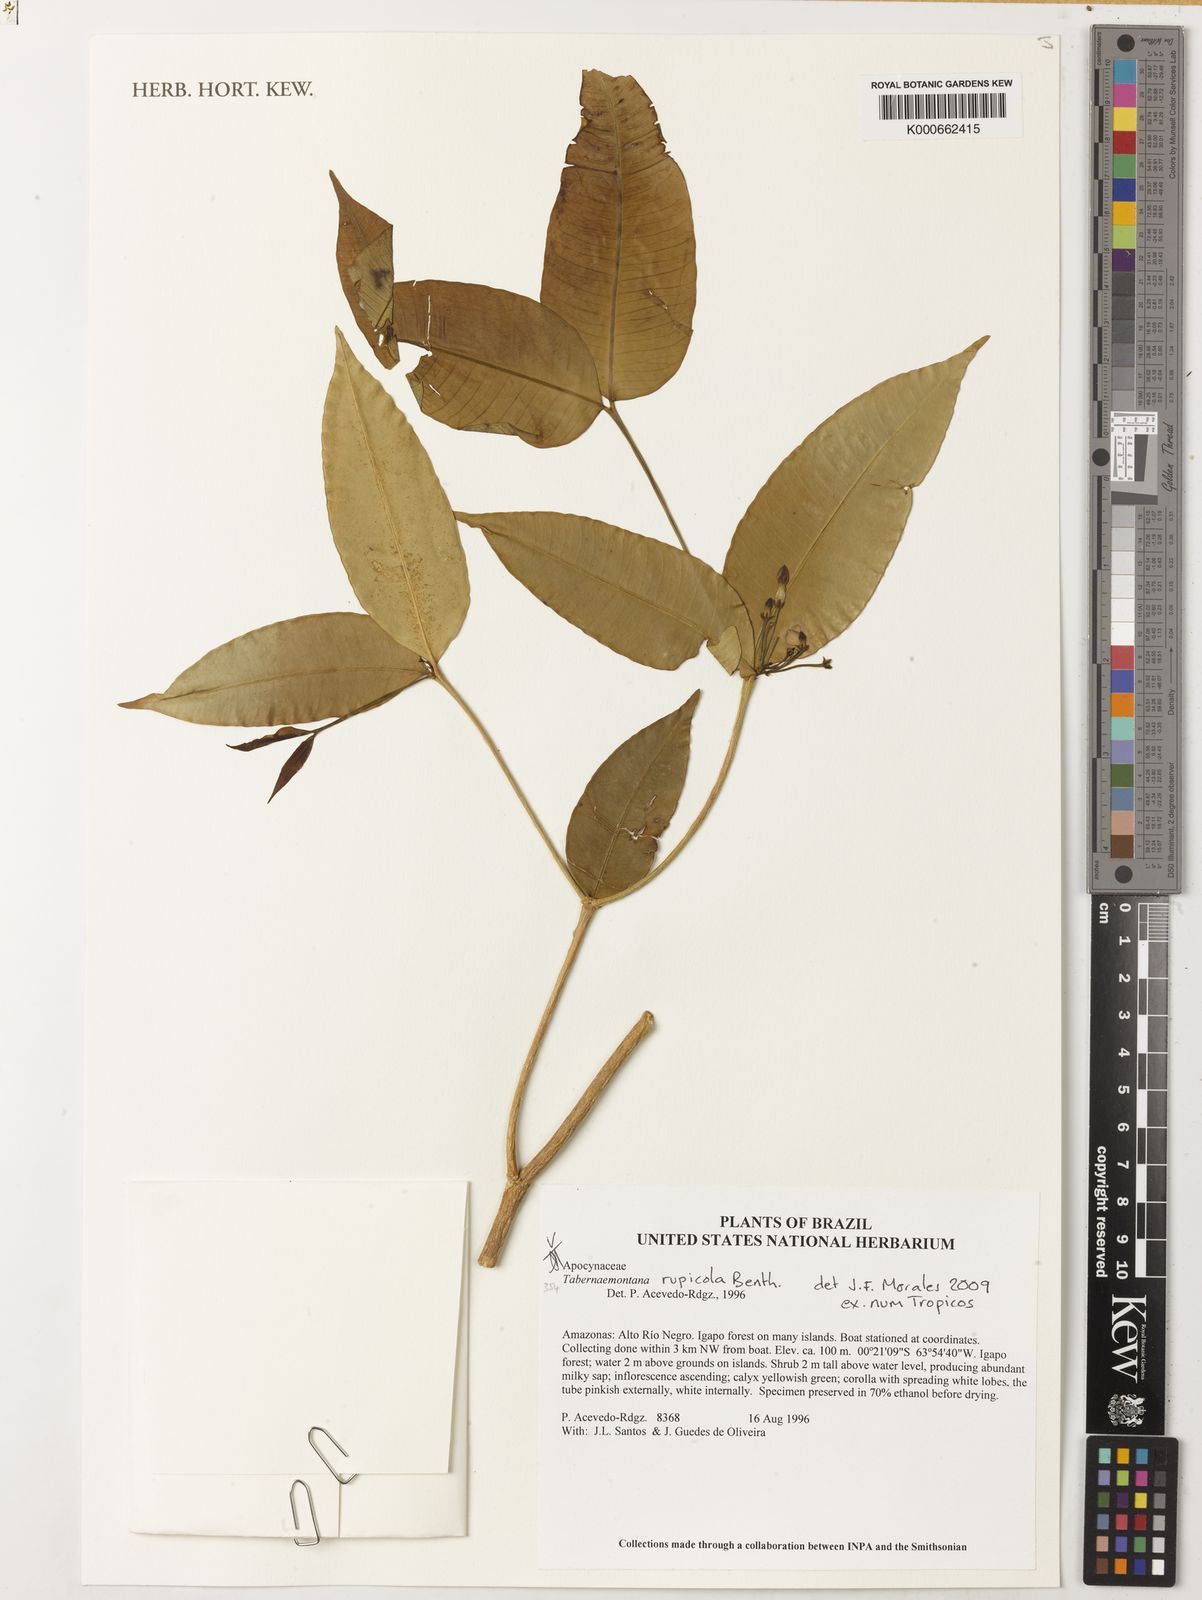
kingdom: Plantae
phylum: Tracheophyta
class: Magnoliopsida
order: Gentianales
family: Apocynaceae
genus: Tabernaemontana
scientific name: Tabernaemontana rupicola
